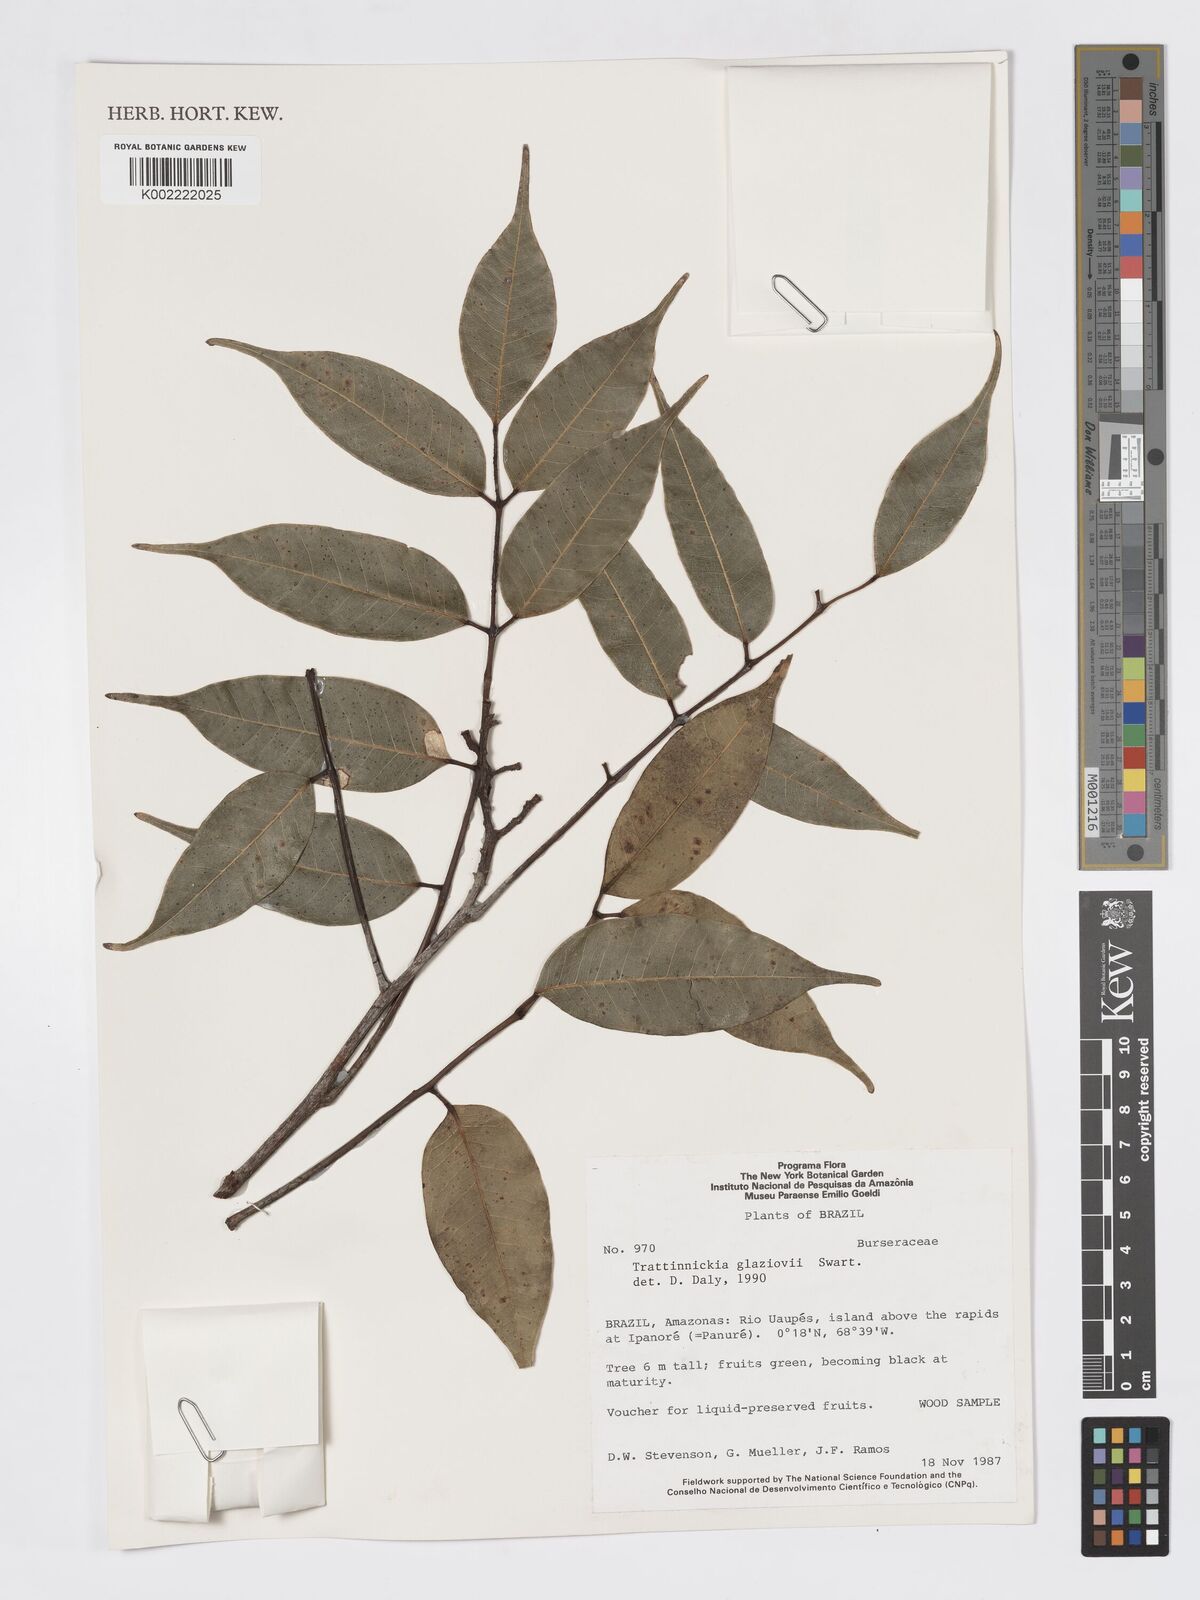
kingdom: Plantae
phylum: Tracheophyta
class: Magnoliopsida
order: Sapindales
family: Burseraceae
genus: Trattinnickia
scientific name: Trattinnickia glaziovii
